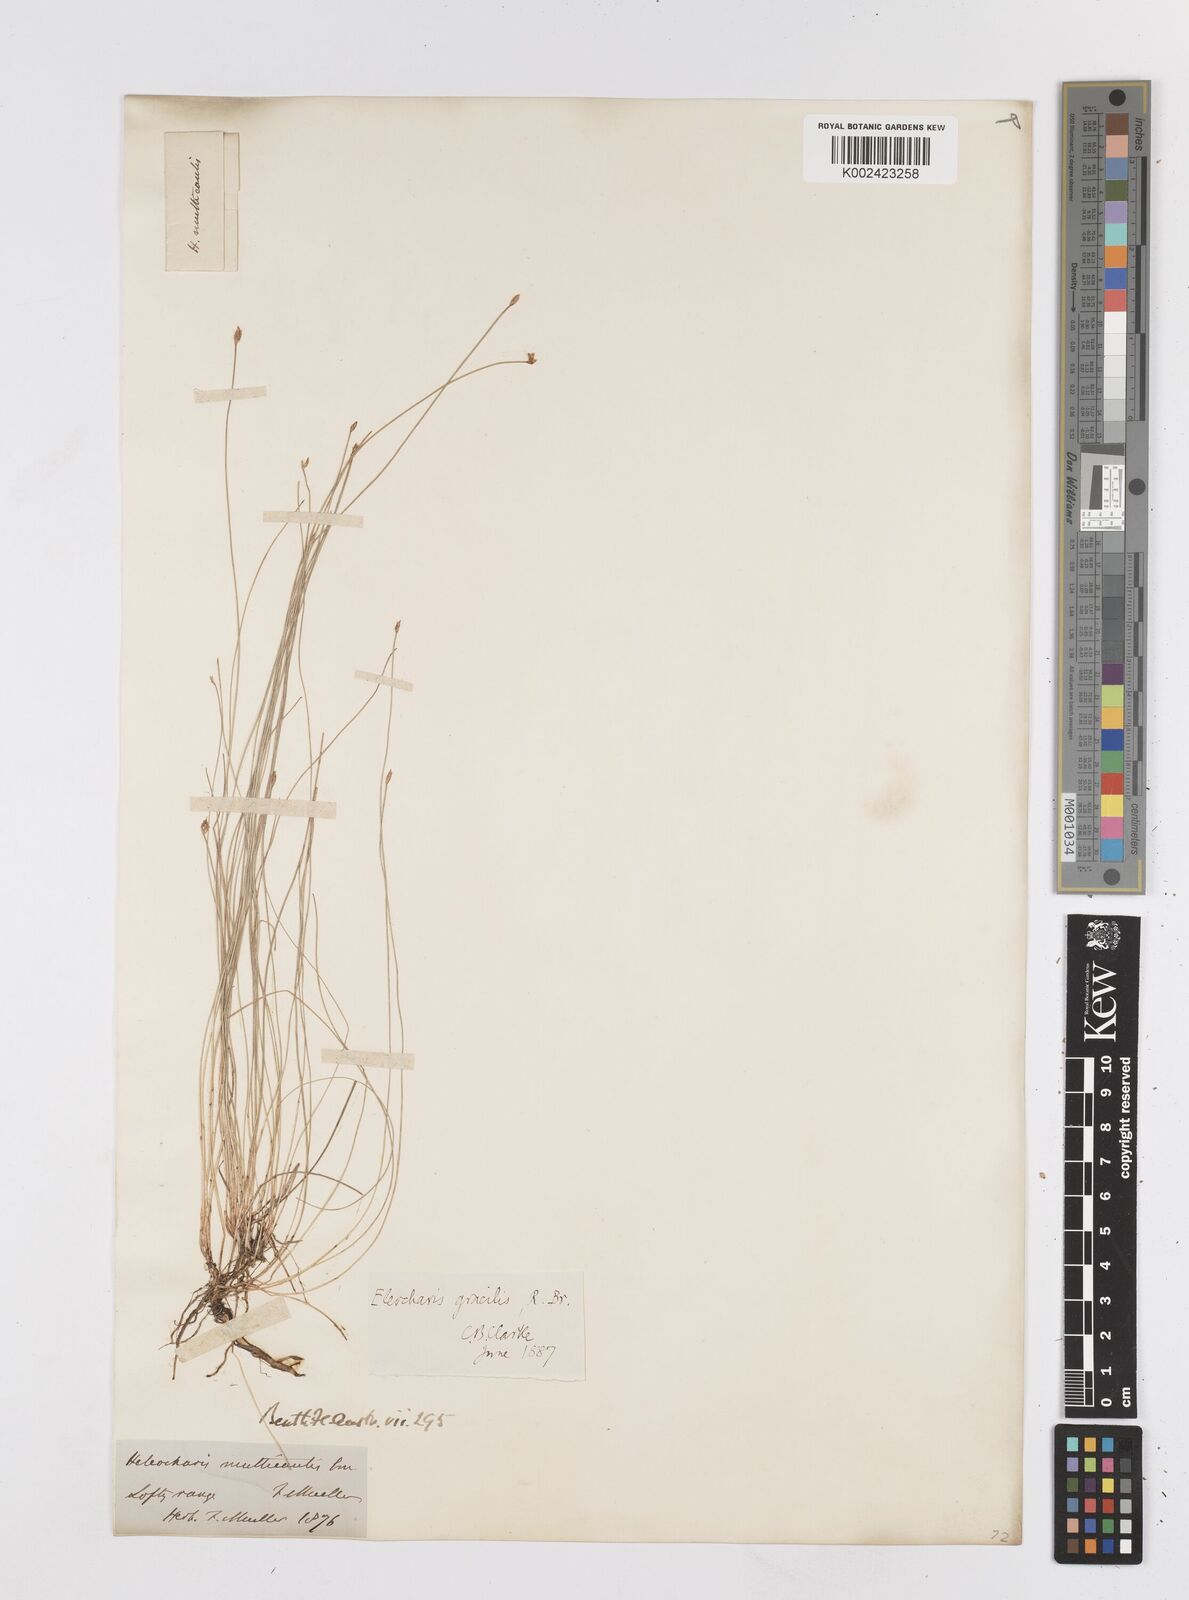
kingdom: Plantae
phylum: Tracheophyta
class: Liliopsida
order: Poales
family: Cyperaceae
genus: Eleocharis
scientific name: Eleocharis multicaulis
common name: Many-stalked spike-rush
